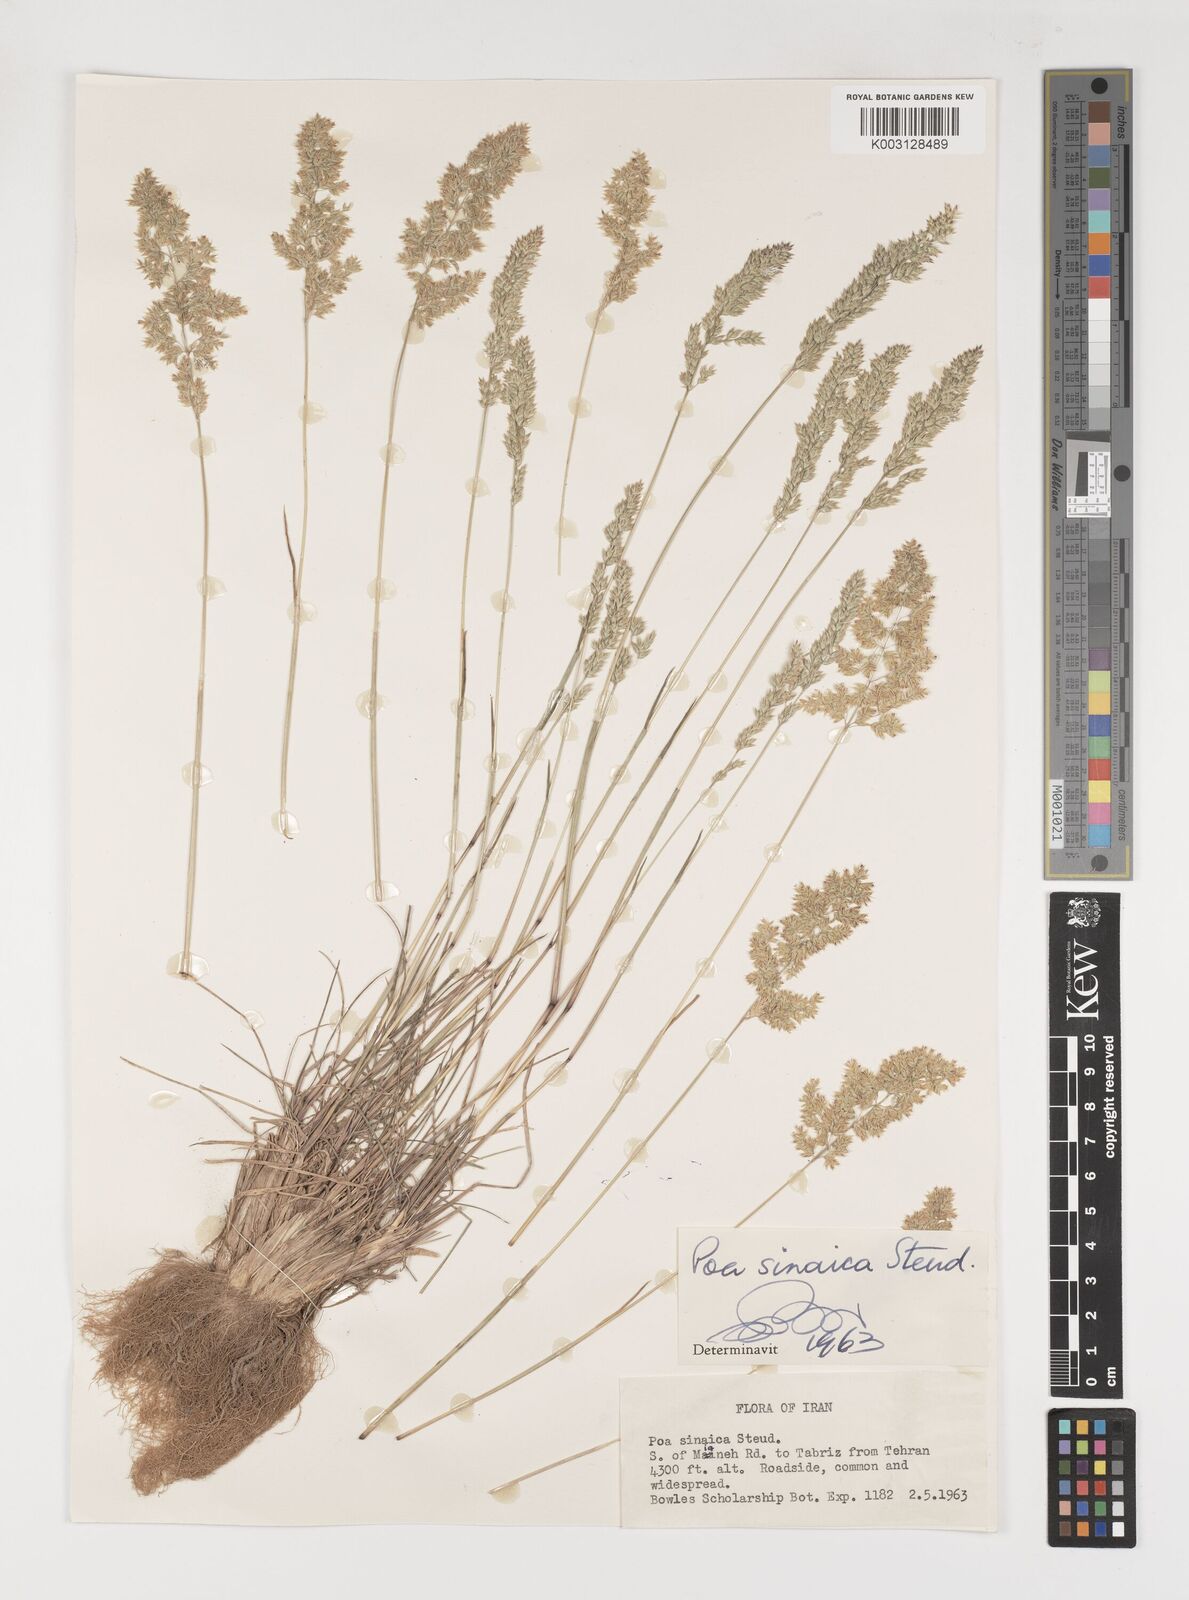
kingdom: Plantae
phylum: Tracheophyta
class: Liliopsida
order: Poales
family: Poaceae
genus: Poa
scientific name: Poa sinaica
